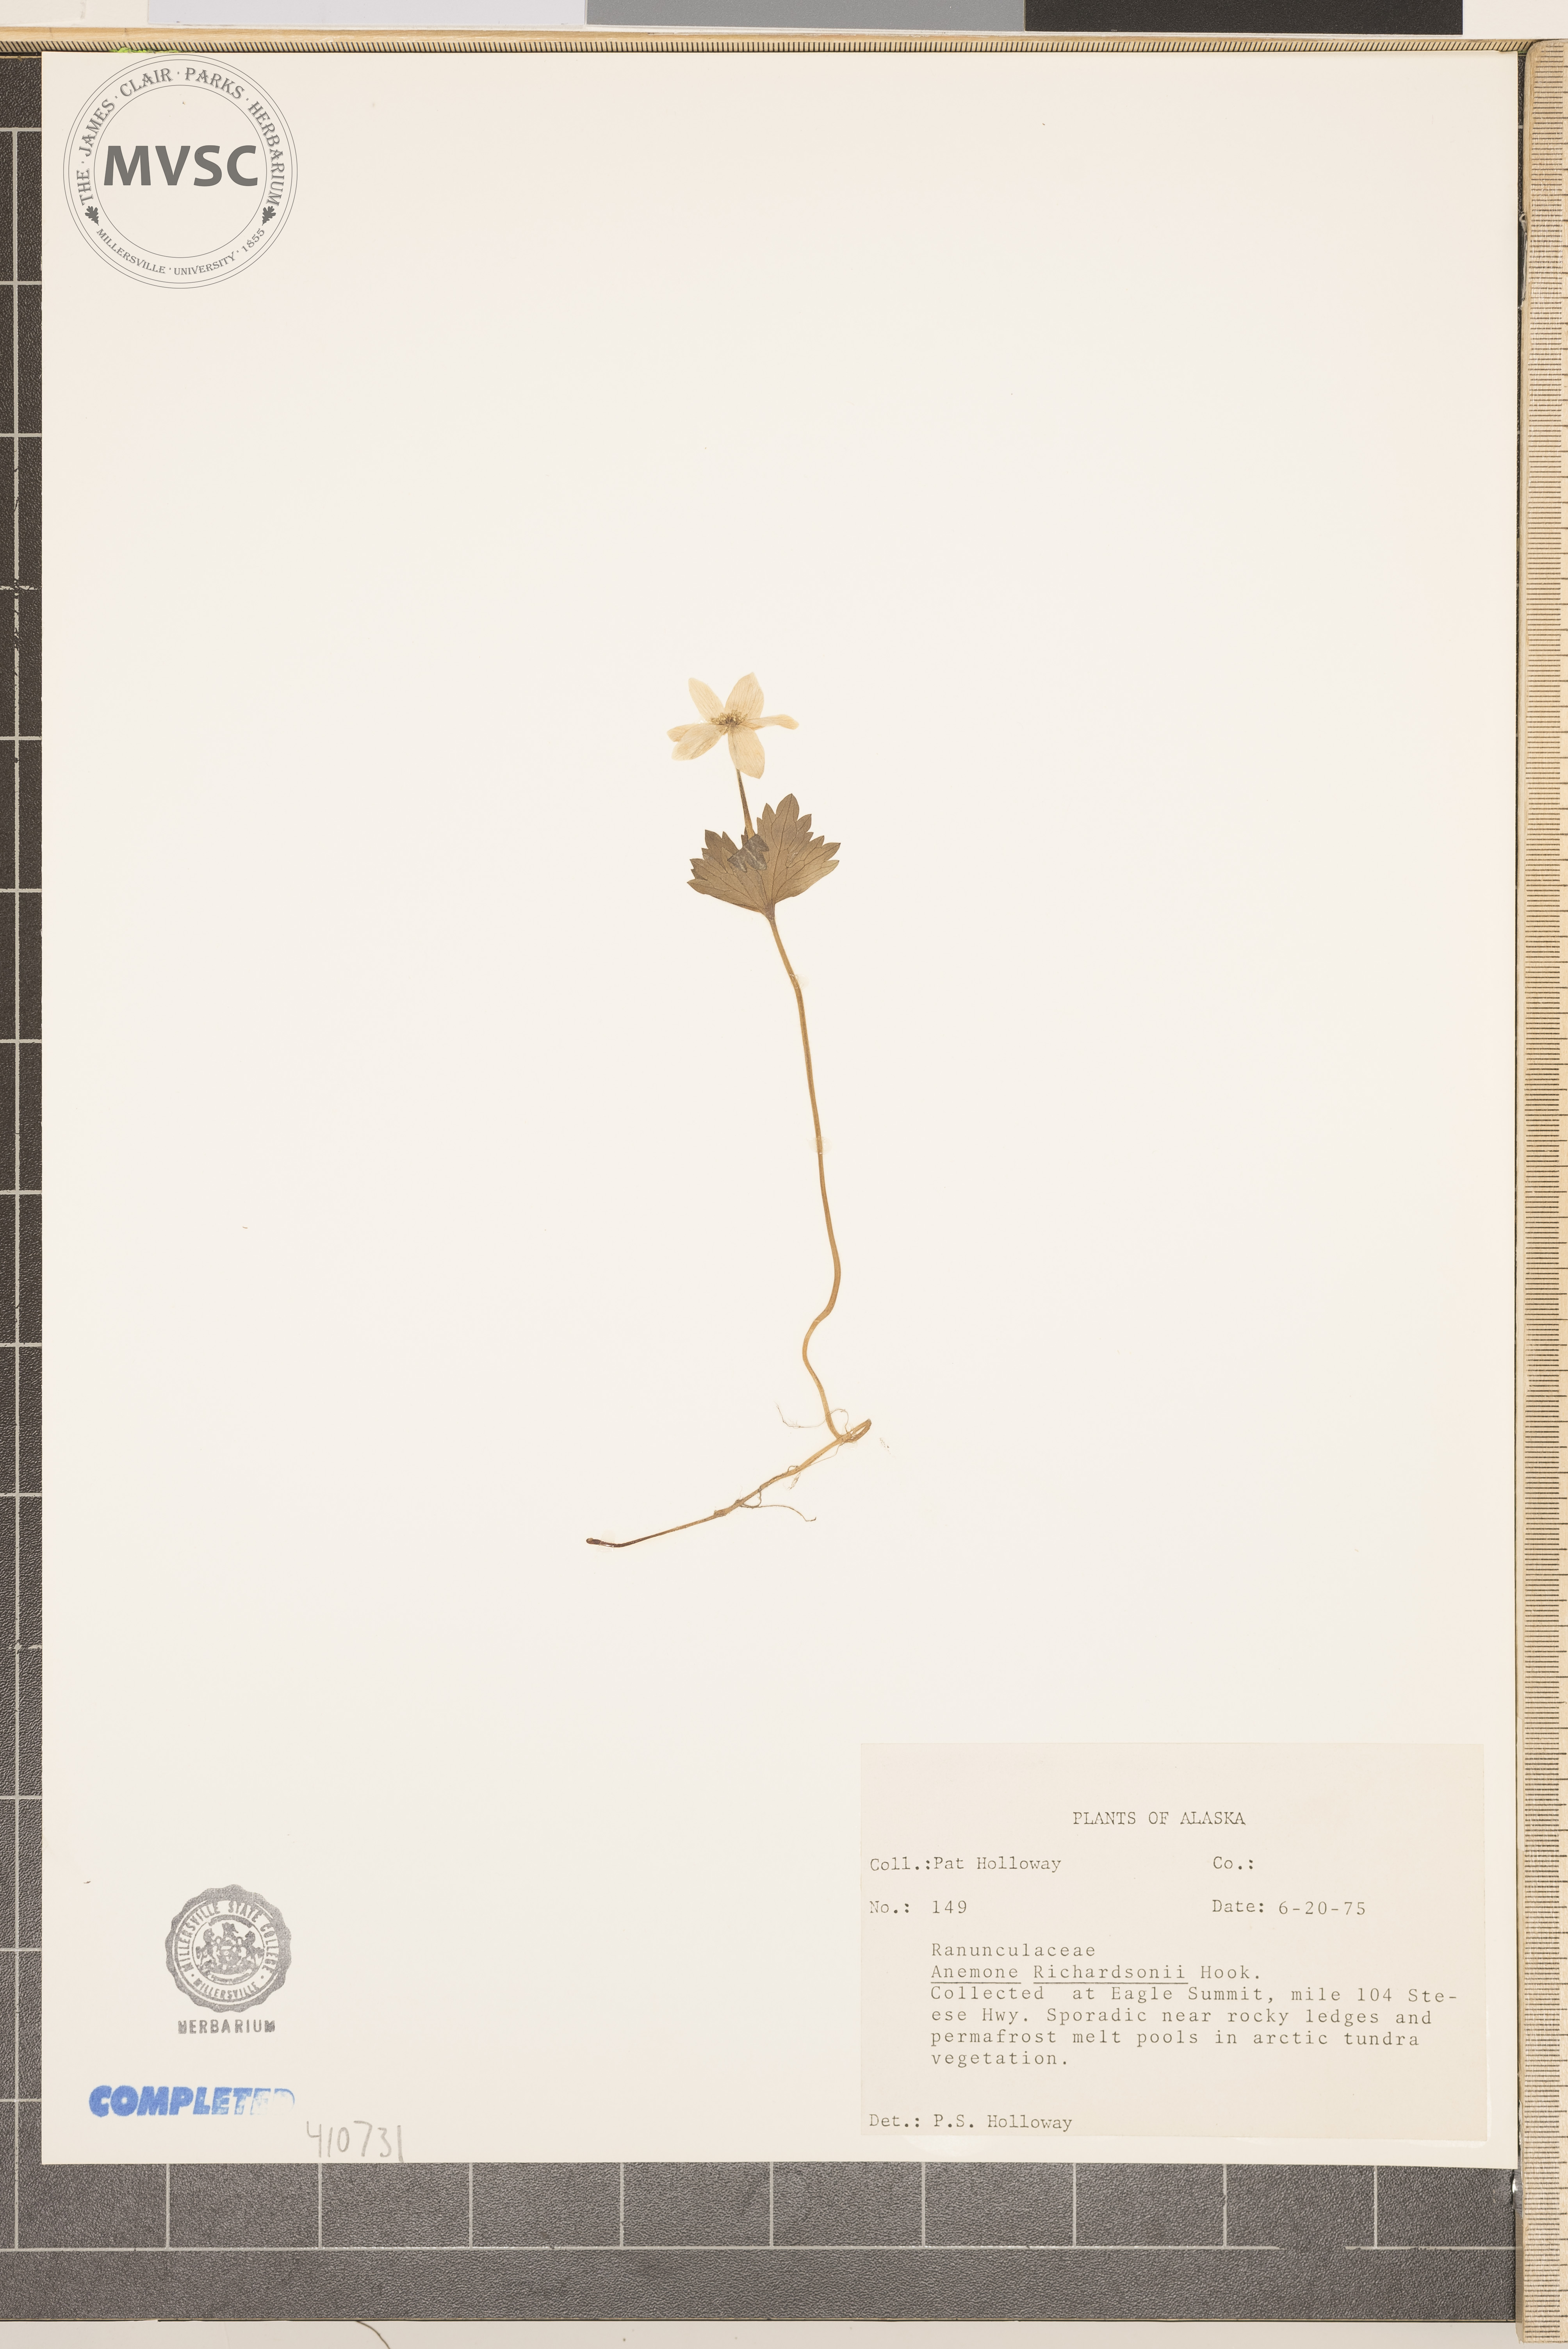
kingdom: Plantae
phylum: Tracheophyta
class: Magnoliopsida
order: Ranunculales
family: Ranunculaceae
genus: Anemonastrum
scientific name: Anemonastrum richardsonii
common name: Richardson's anemone
